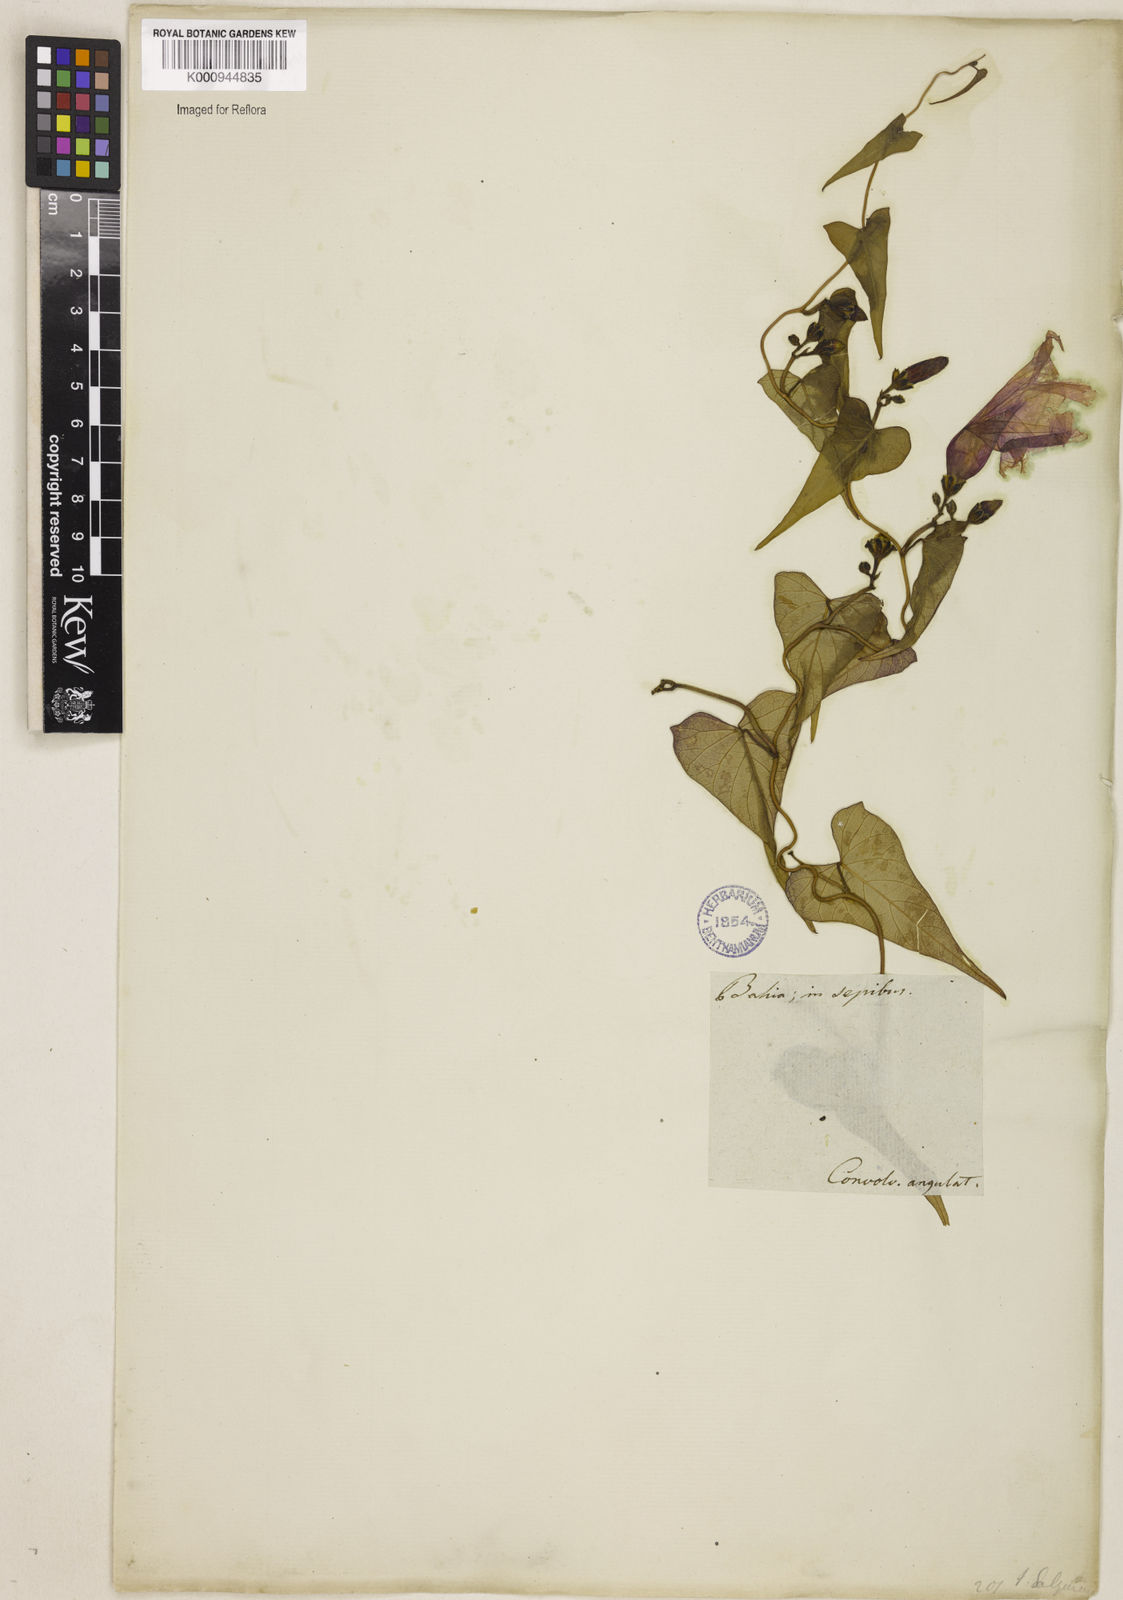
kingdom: Plantae
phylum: Tracheophyta
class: Magnoliopsida
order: Solanales
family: Convolvulaceae
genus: Ipomoea
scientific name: Ipomoea
